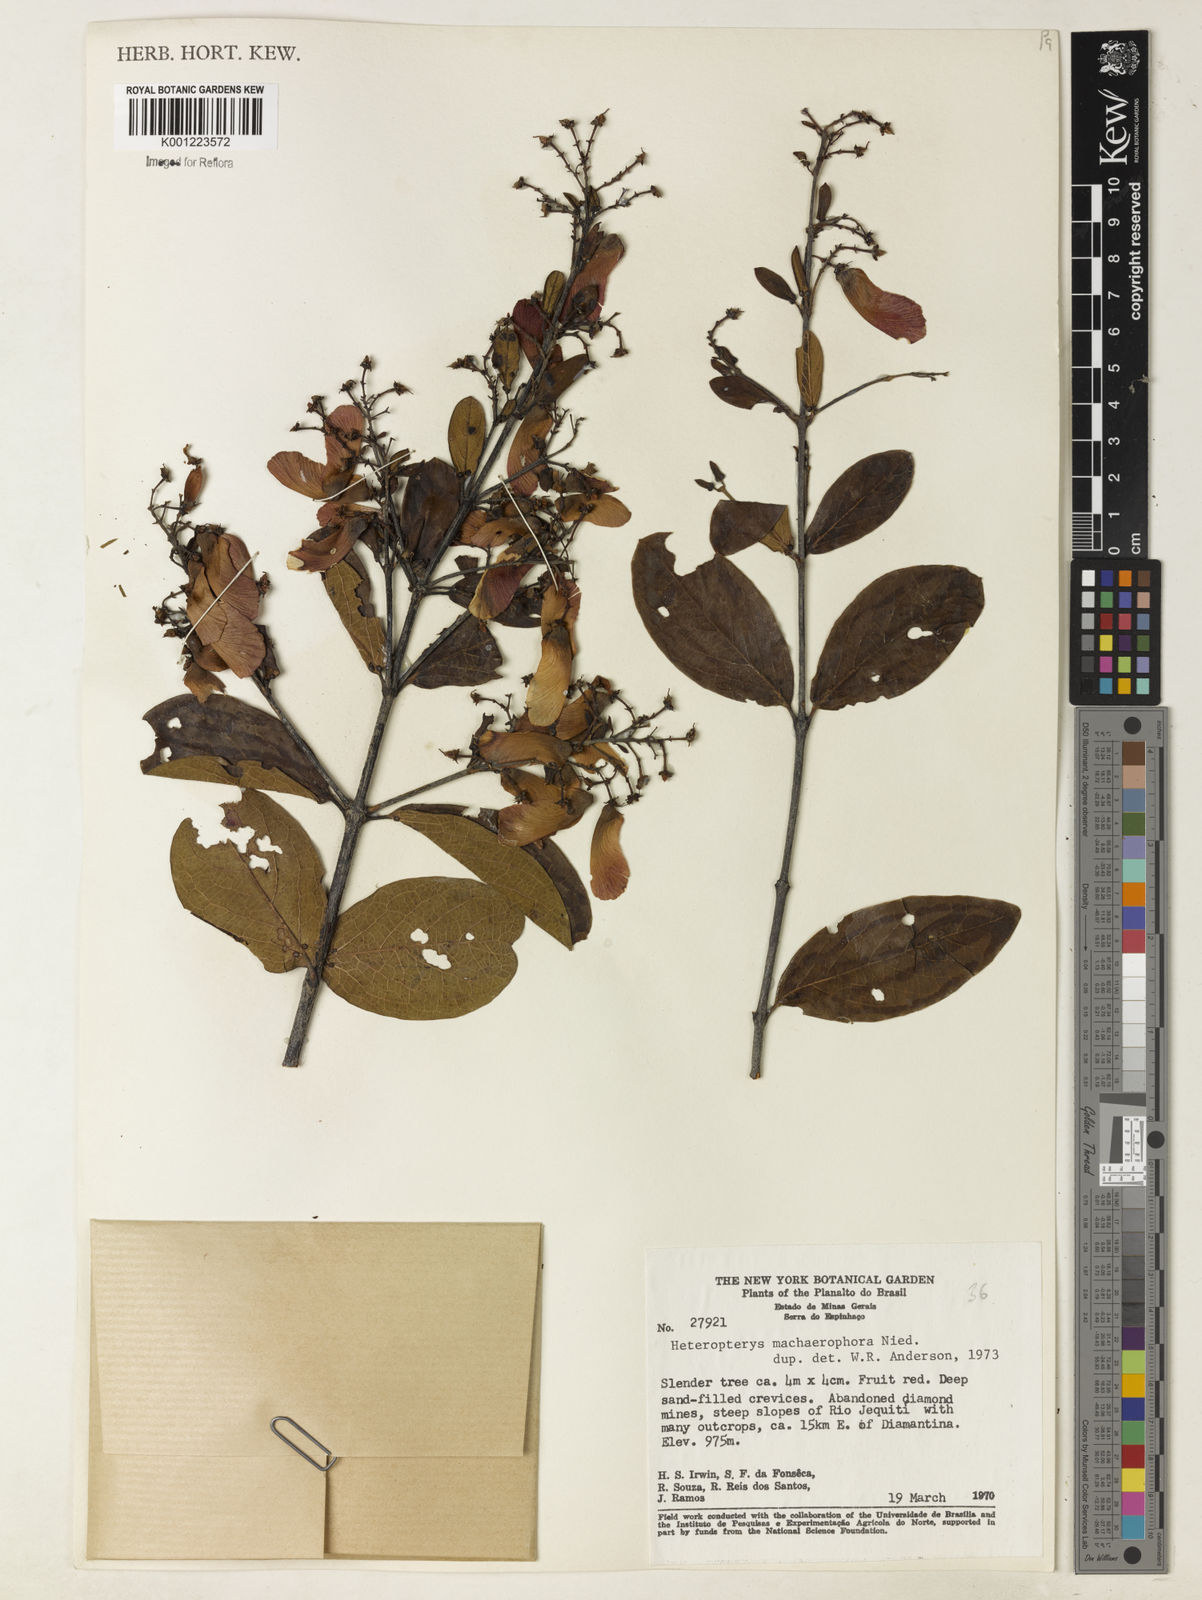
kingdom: Plantae
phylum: Tracheophyta
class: Magnoliopsida
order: Malpighiales
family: Malpighiaceae
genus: Heteropterys
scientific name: Heteropterys
